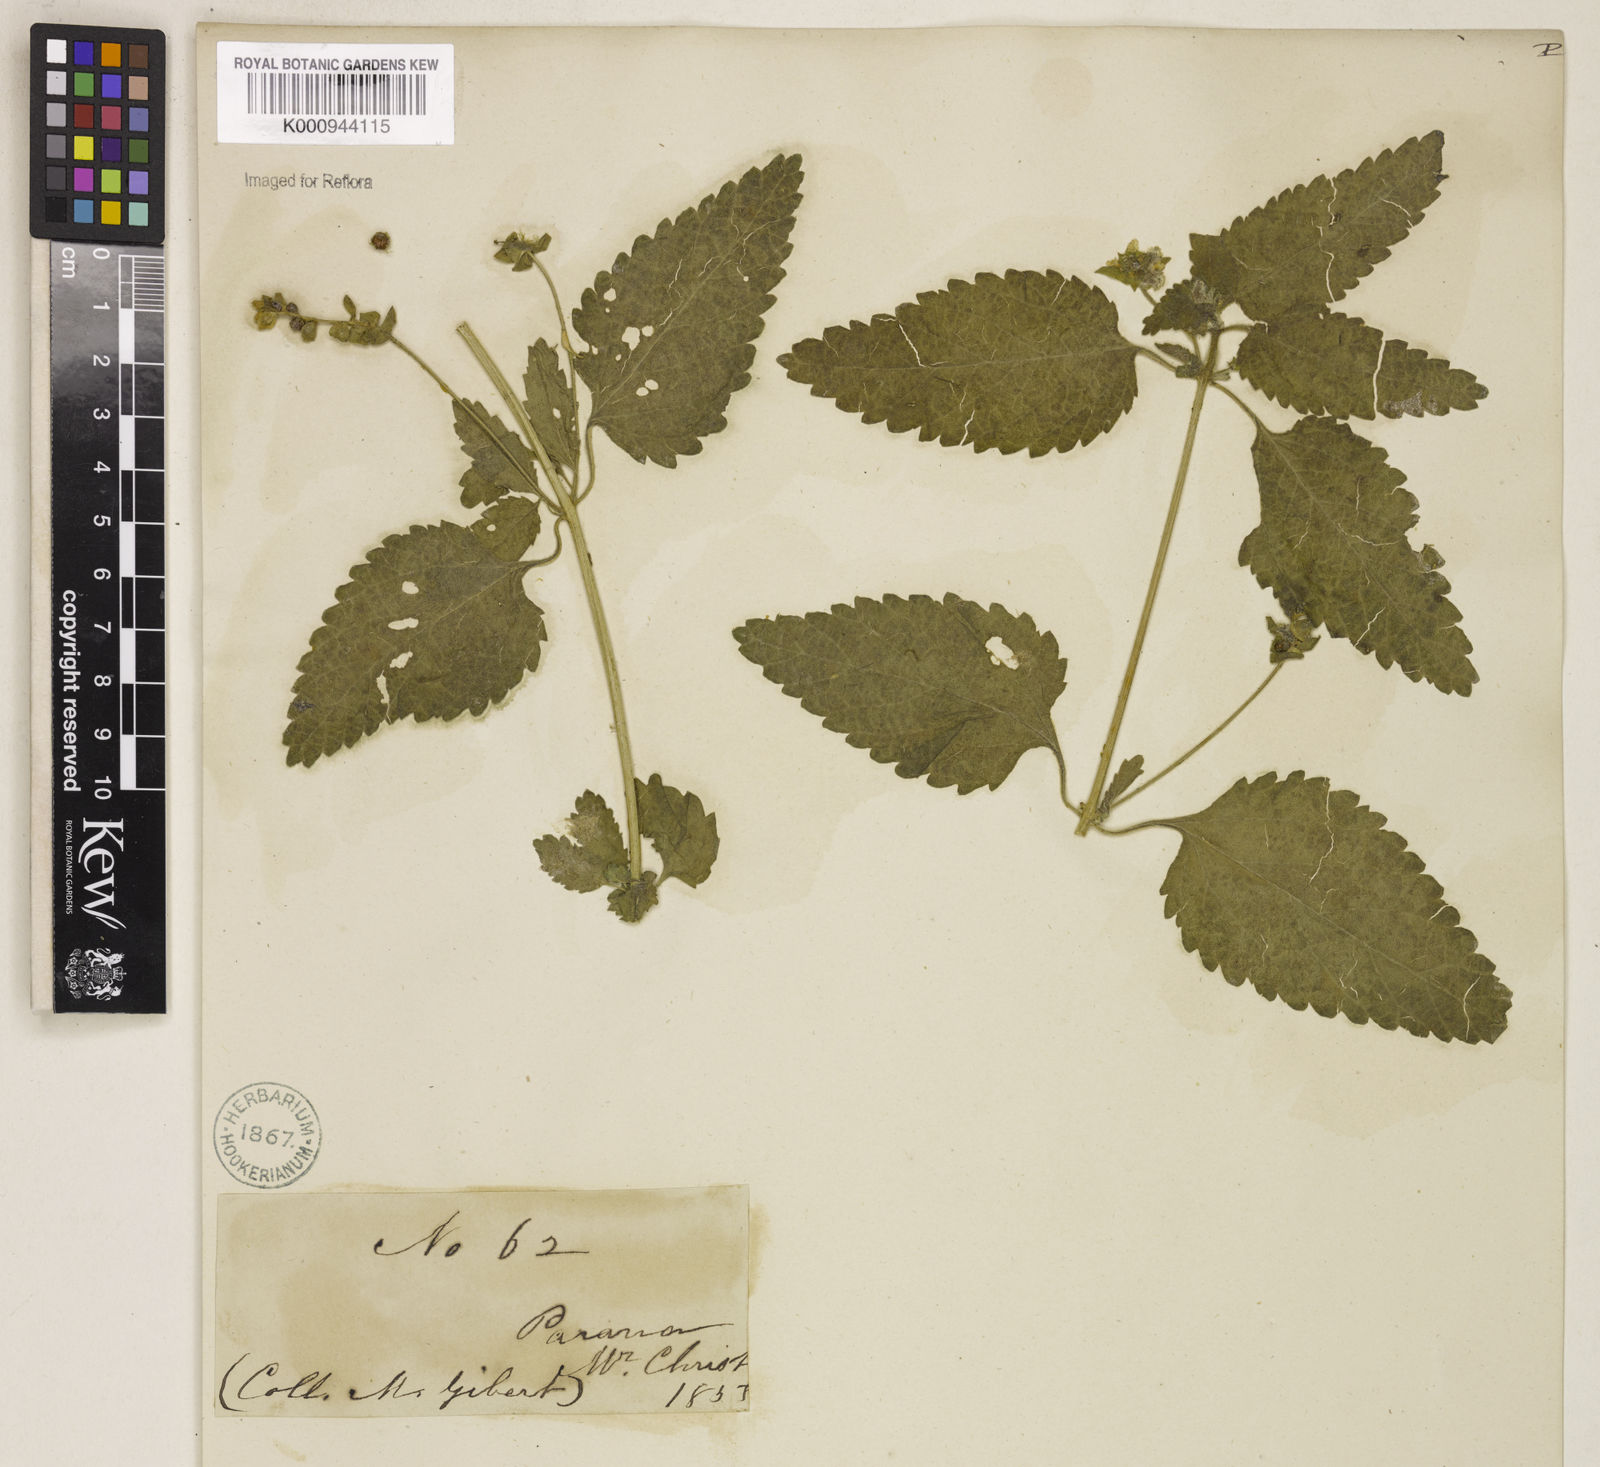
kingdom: Plantae
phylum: Tracheophyta
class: Magnoliopsida
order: Lamiales
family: Verbenaceae
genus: Priva
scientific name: Priva
